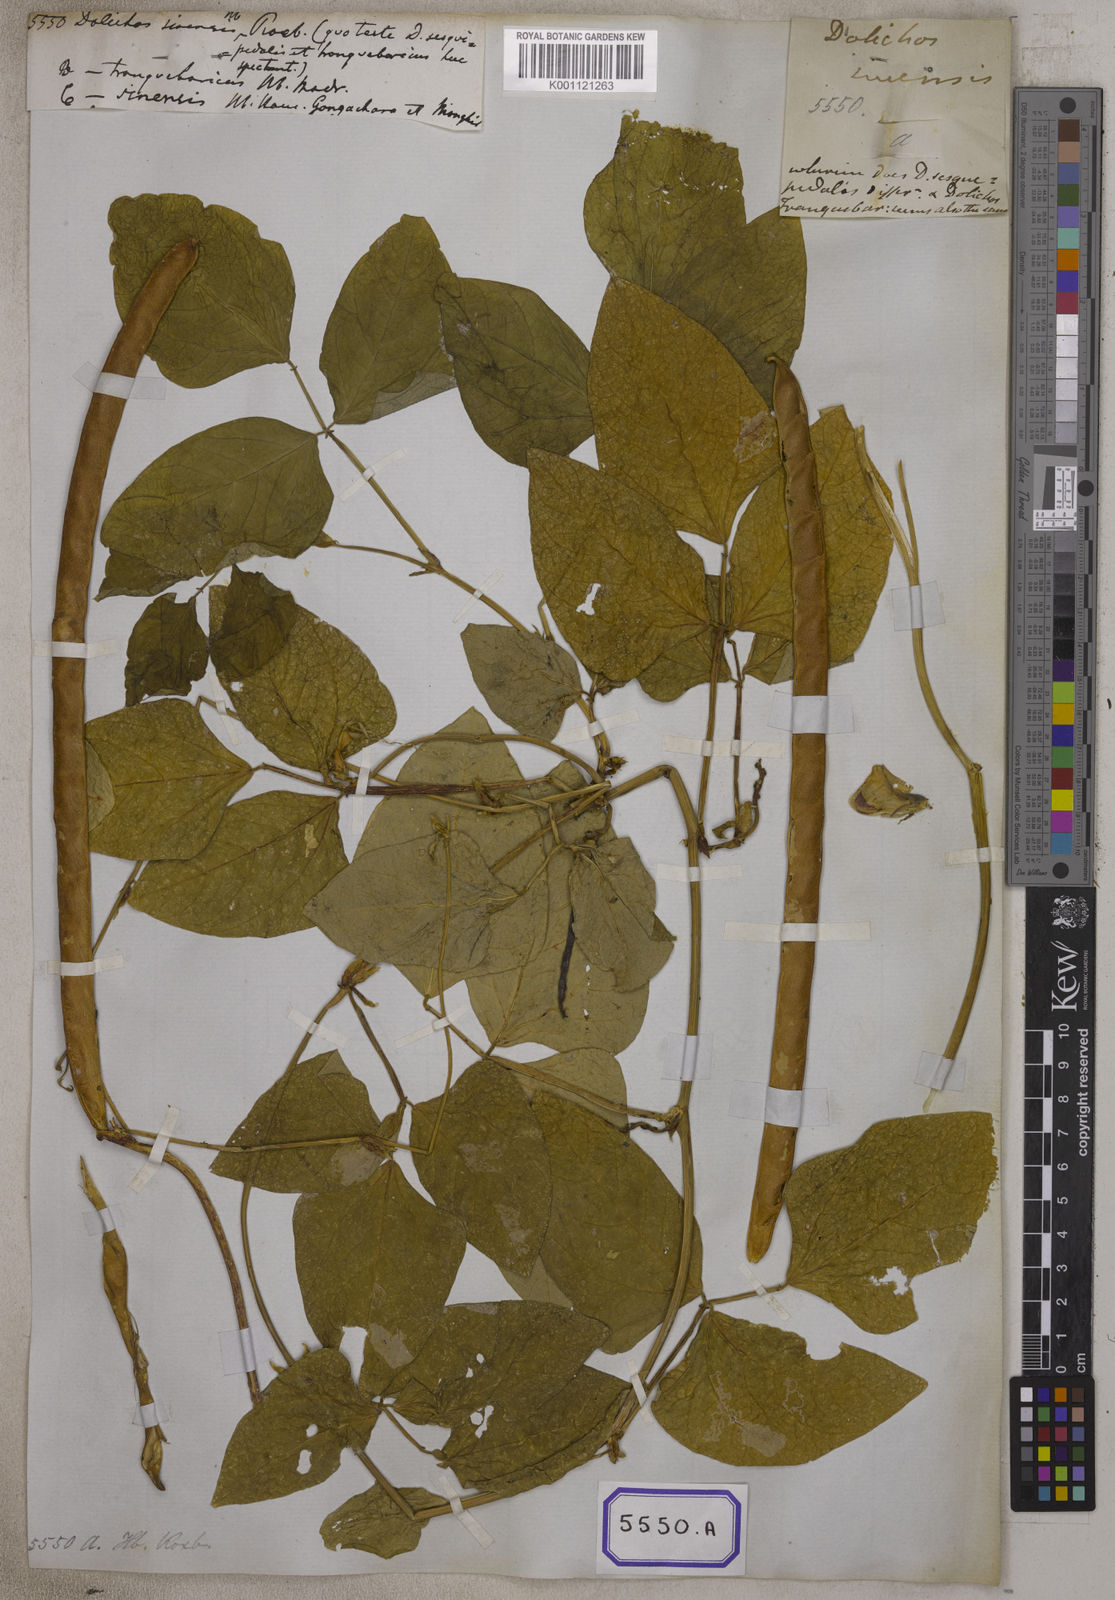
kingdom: Plantae
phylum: Tracheophyta
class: Magnoliopsida
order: Fabales
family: Fabaceae
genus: Vigna
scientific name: Vigna unguiculata
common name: Cowpea
